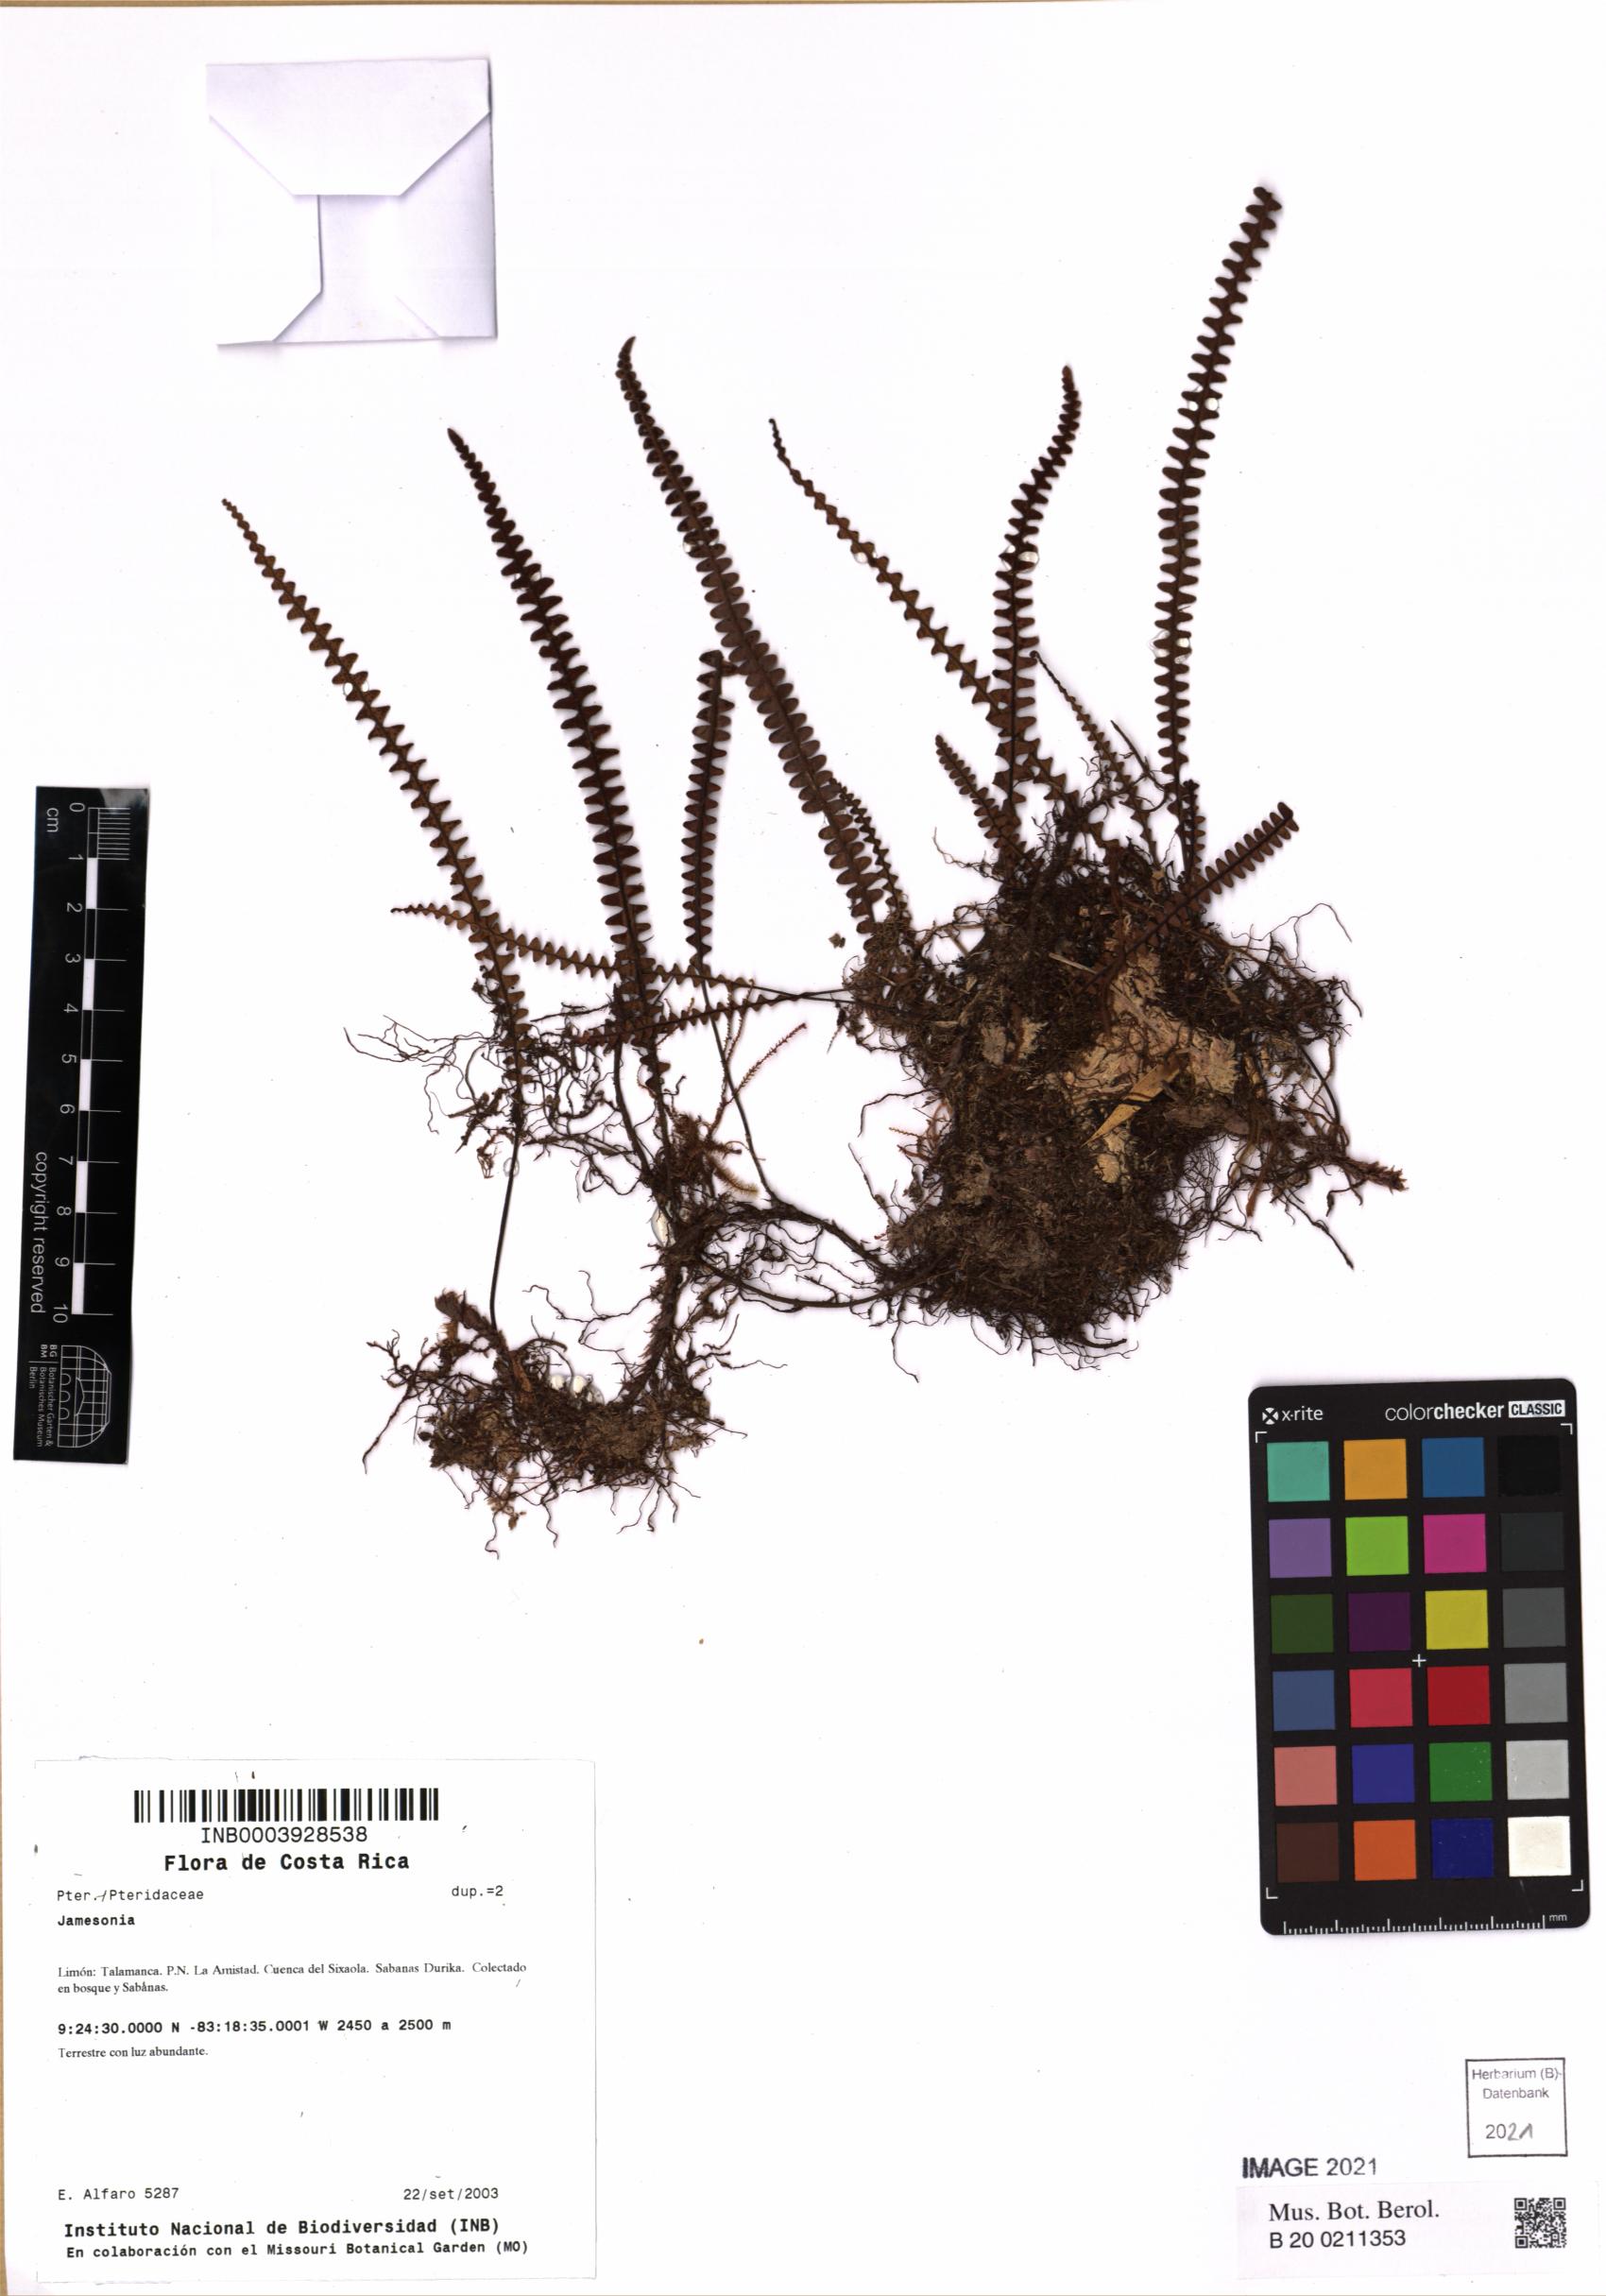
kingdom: Plantae
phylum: Tracheophyta
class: Polypodiopsida
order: Polypodiales
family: Polypodiaceae
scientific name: Polypodiaceae
